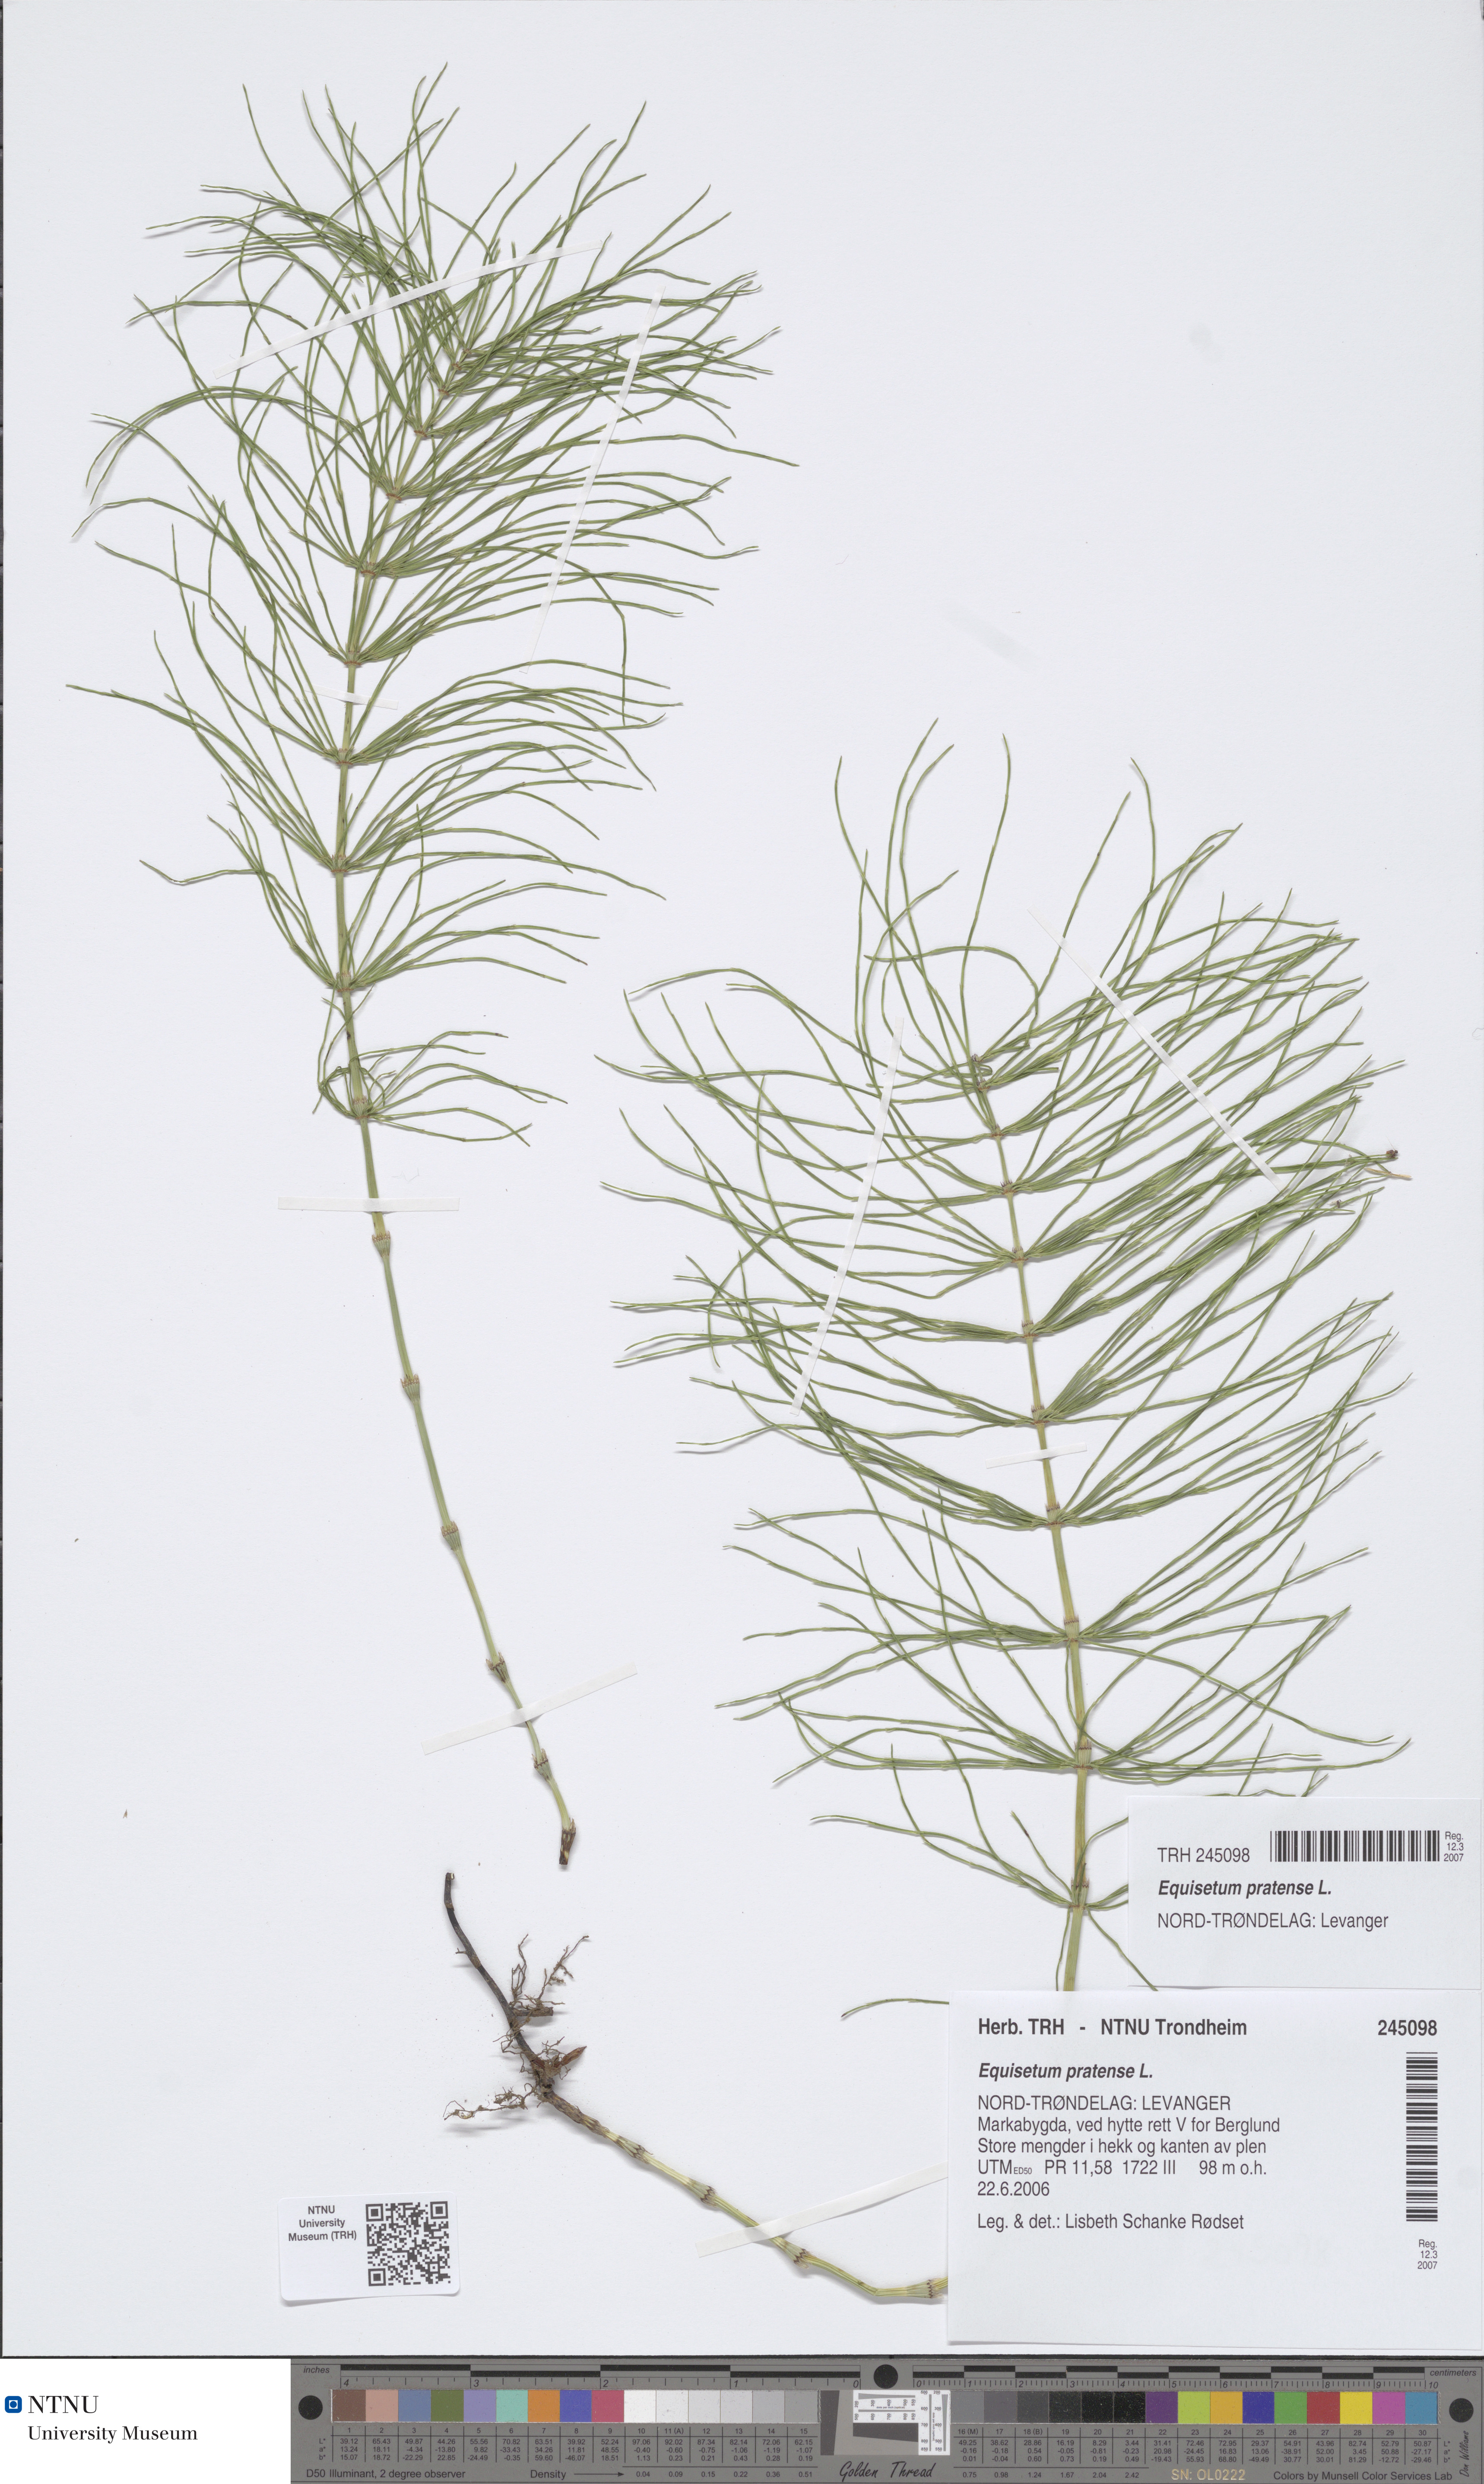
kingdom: Plantae
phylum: Tracheophyta
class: Polypodiopsida
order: Equisetales
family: Equisetaceae
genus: Equisetum
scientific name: Equisetum pratense
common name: Meadow horsetail
